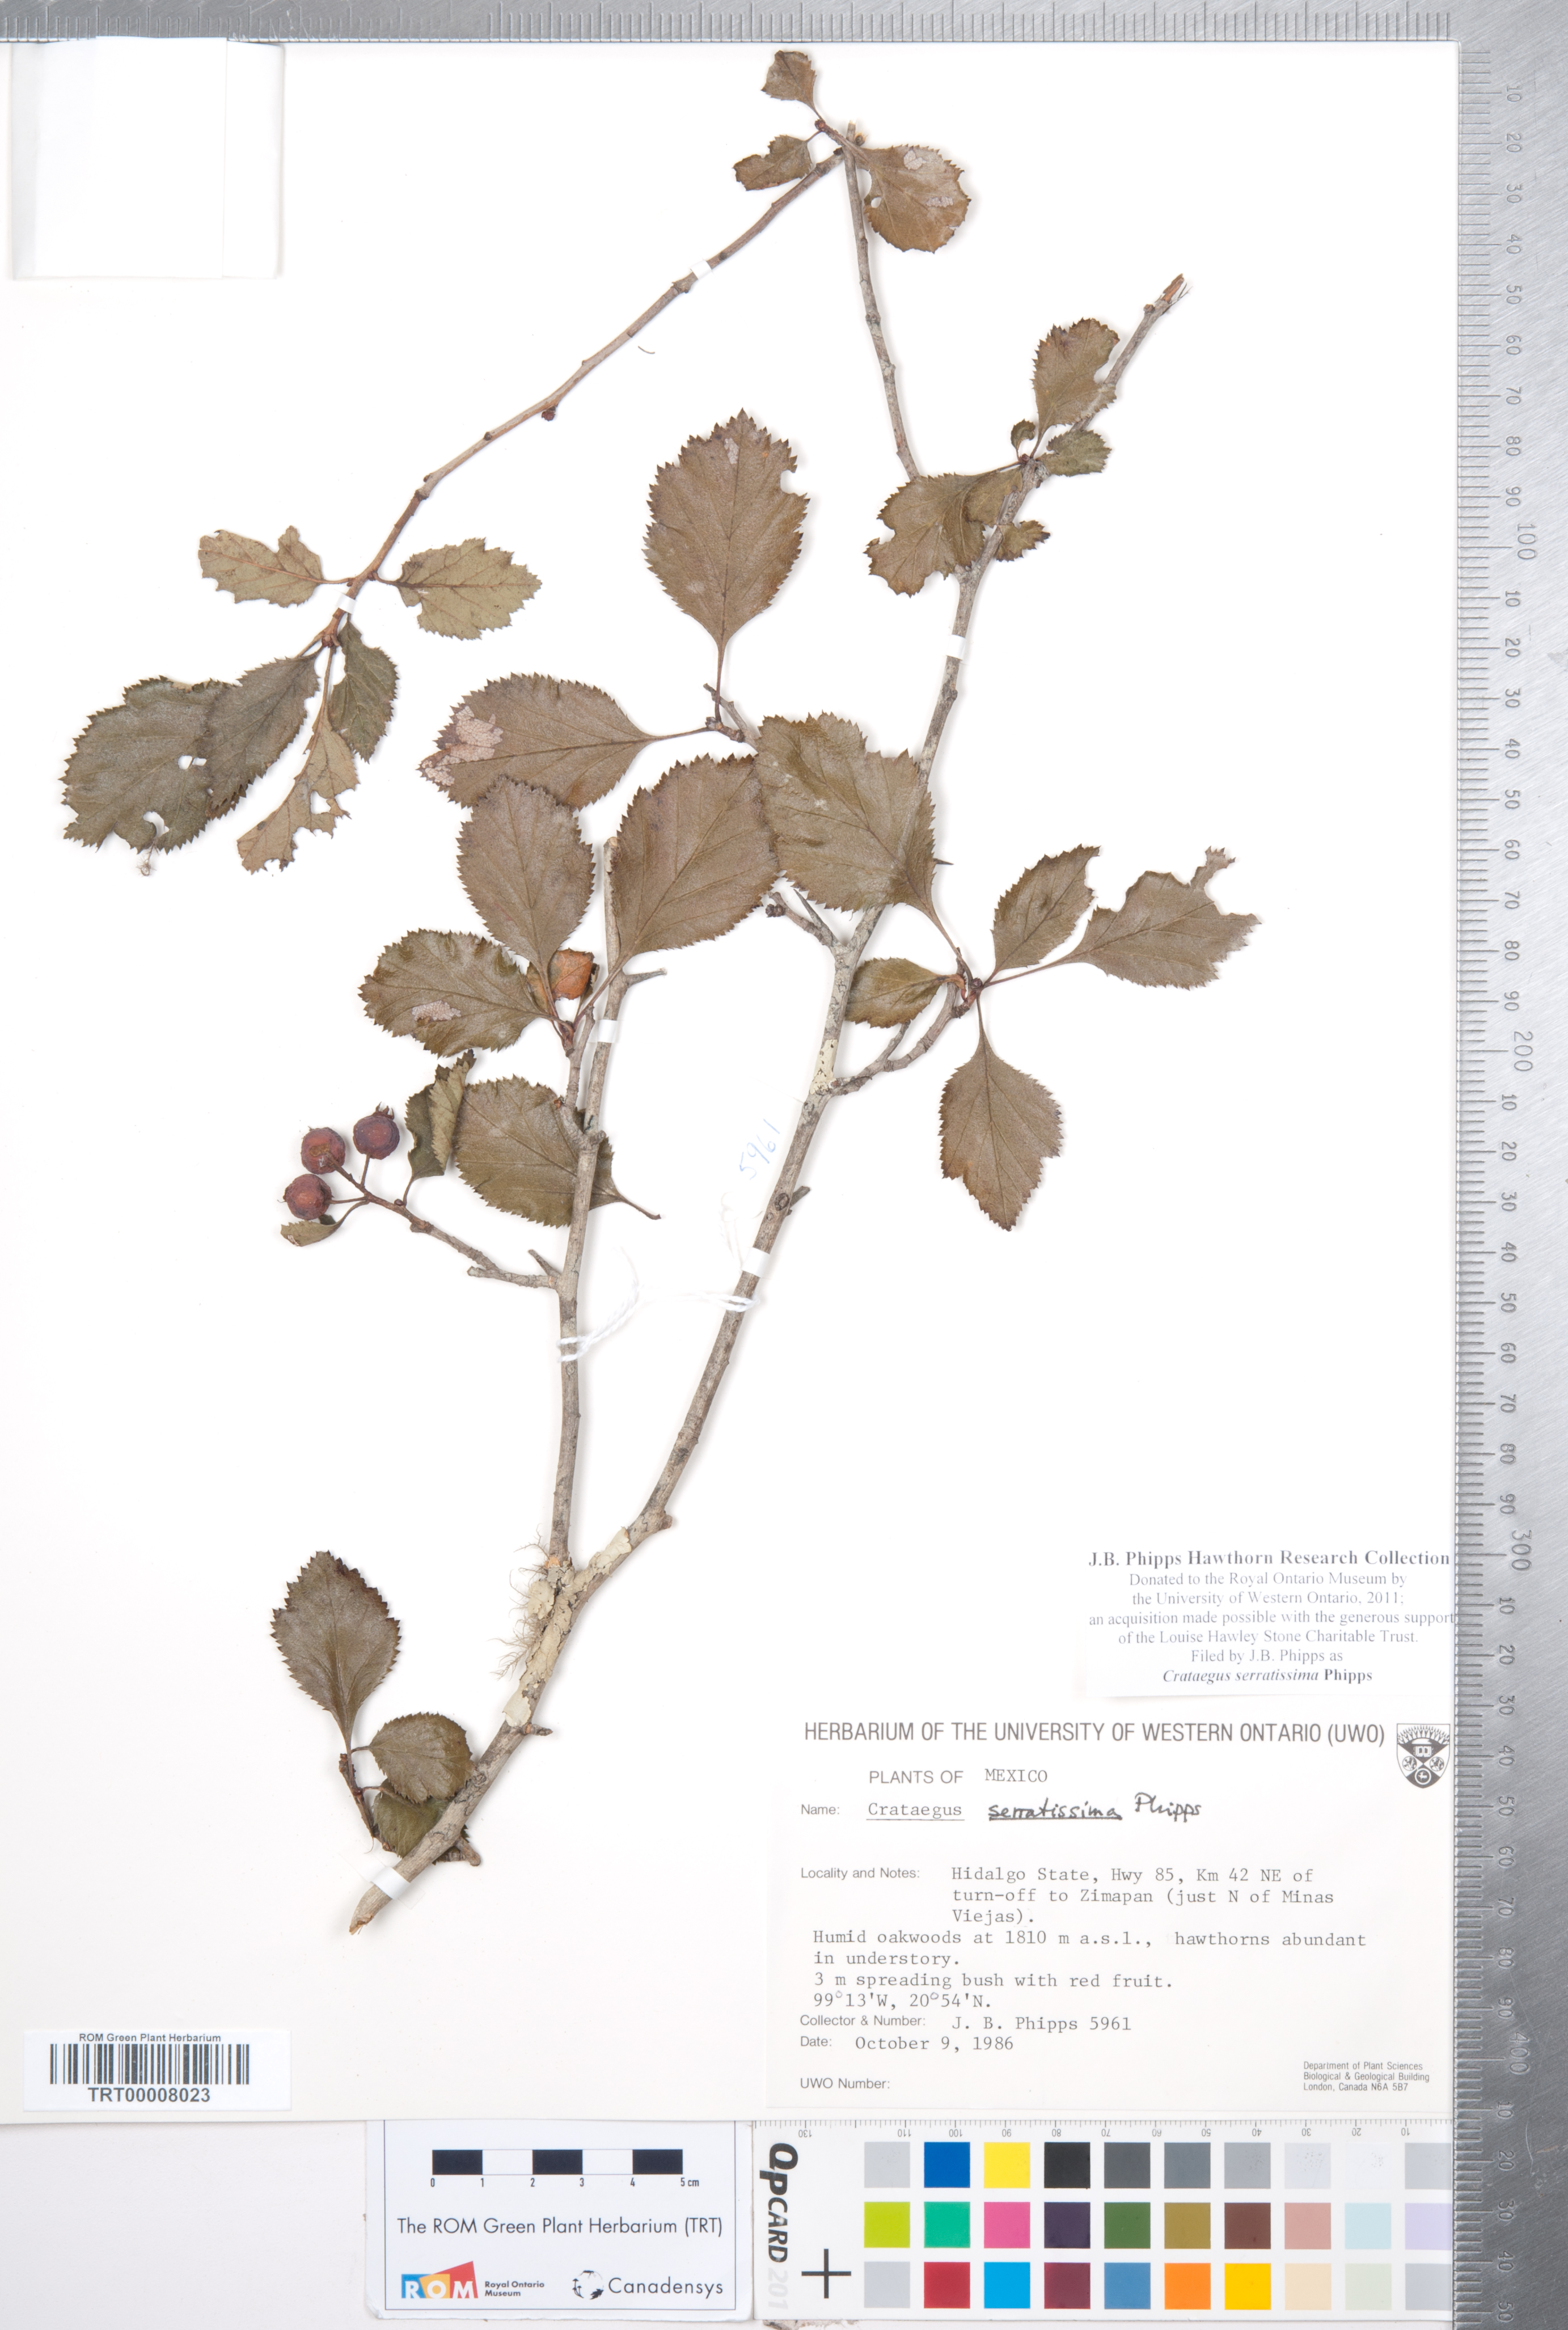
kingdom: Plantae
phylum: Tracheophyta
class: Magnoliopsida
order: Rosales
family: Rosaceae
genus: Crataegus
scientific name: Crataegus serratissima
